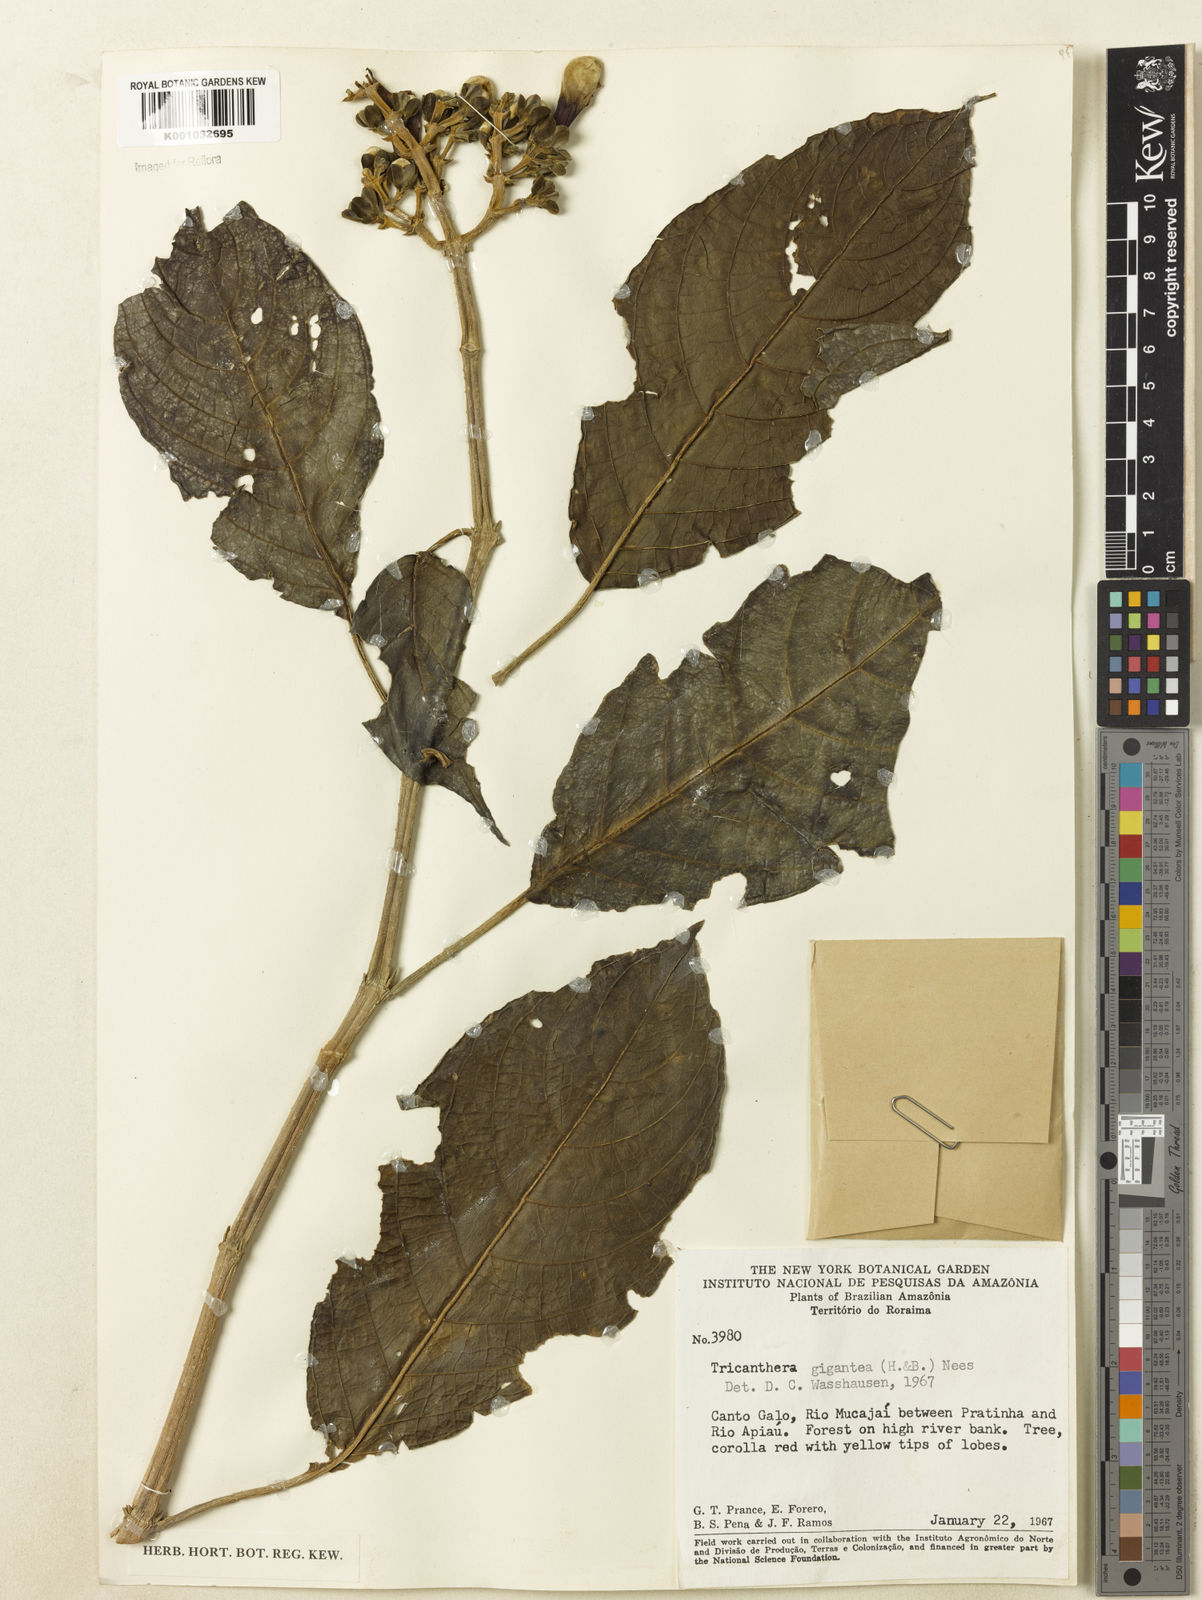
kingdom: Plantae
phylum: Tracheophyta
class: Magnoliopsida
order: Lamiales
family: Acanthaceae
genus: Trichanthera
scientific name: Trichanthera
